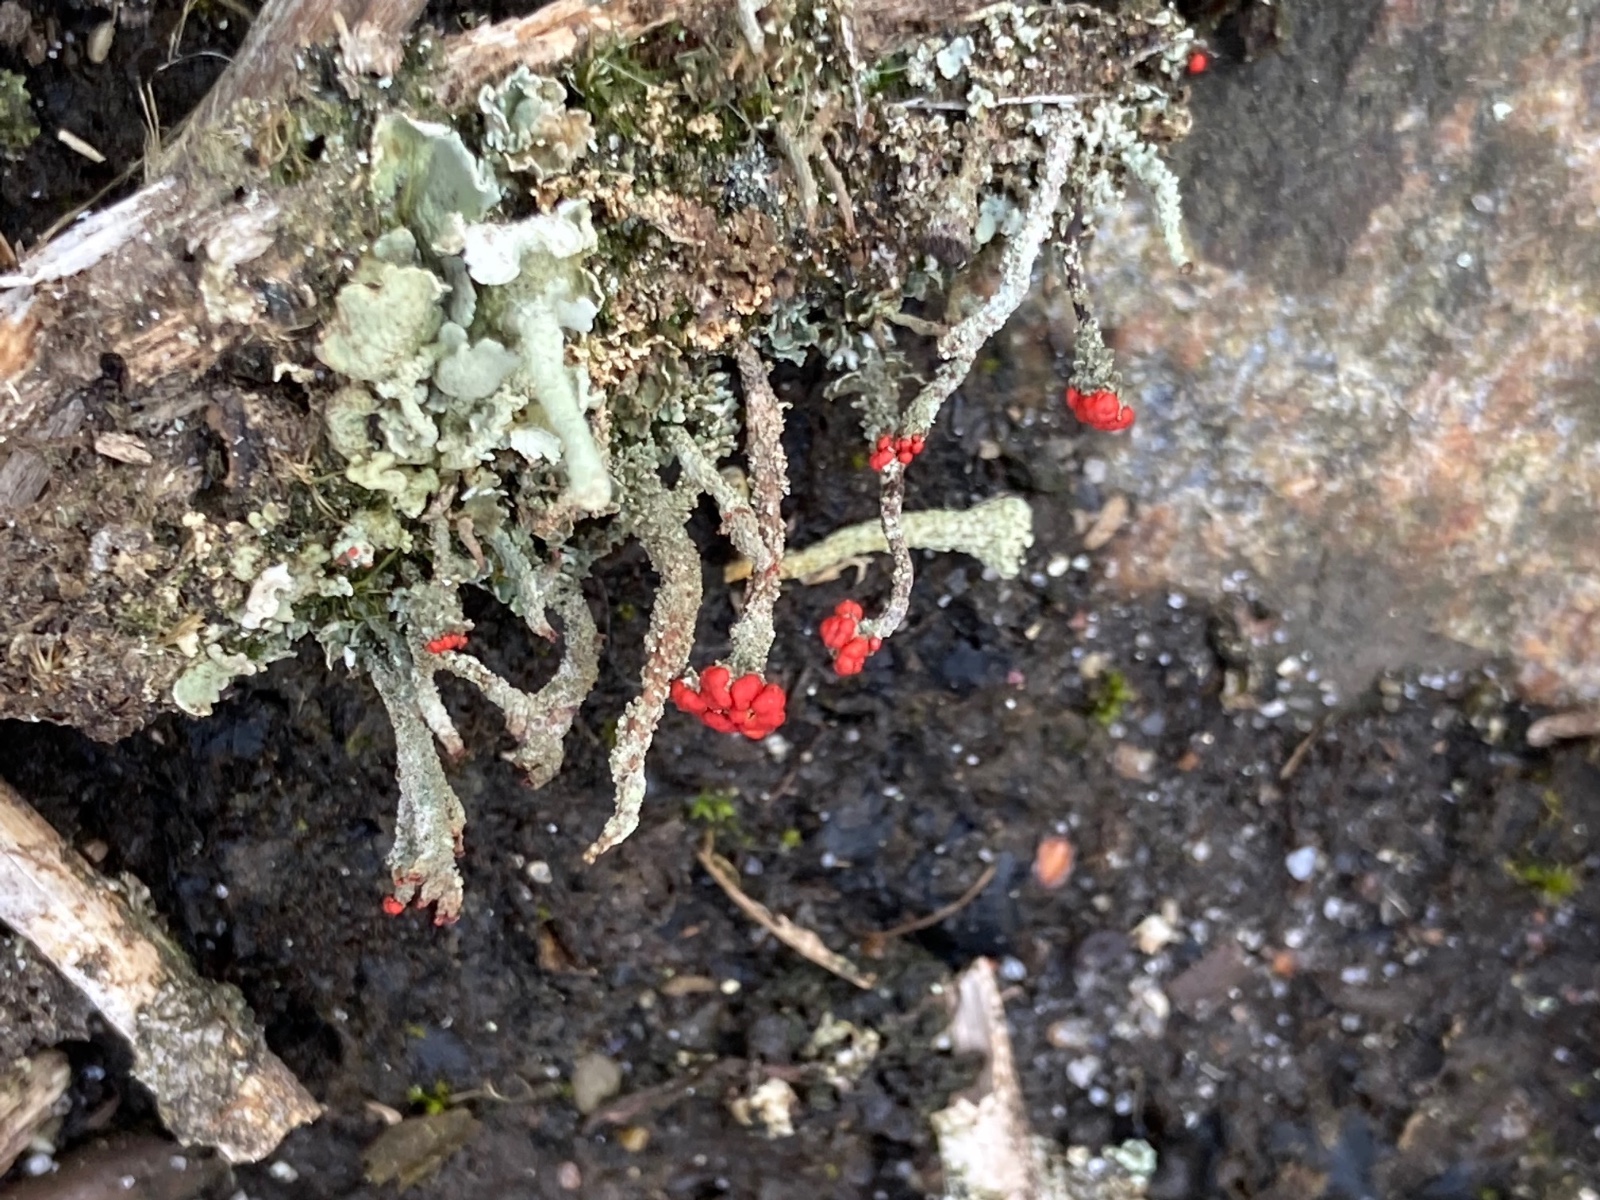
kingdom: Fungi
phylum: Ascomycota
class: Lecanoromycetes
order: Lecanorales
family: Cladoniaceae
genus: Cladonia
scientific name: Cladonia floerkeana
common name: lakrød bægerlav
